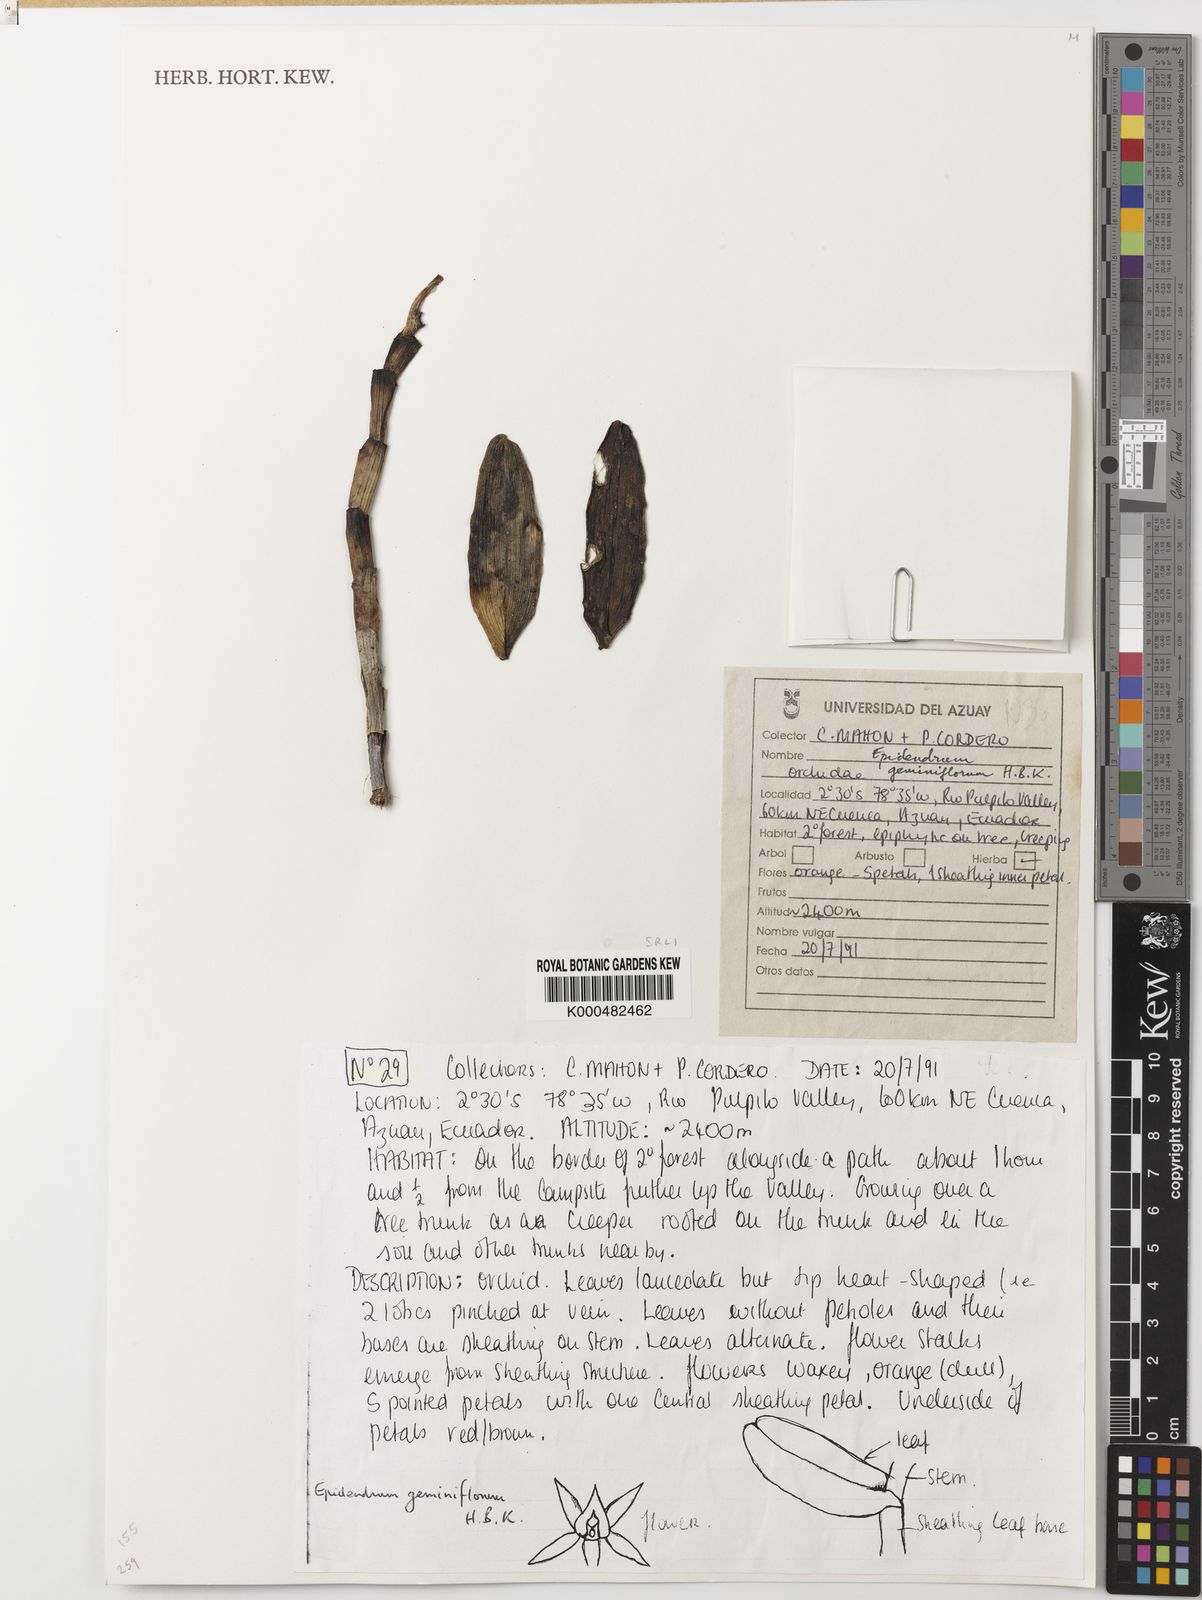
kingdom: Plantae
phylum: Tracheophyta
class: Liliopsida
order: Asparagales
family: Orchidaceae
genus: Epidendrum
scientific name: Epidendrum geminiflorum
